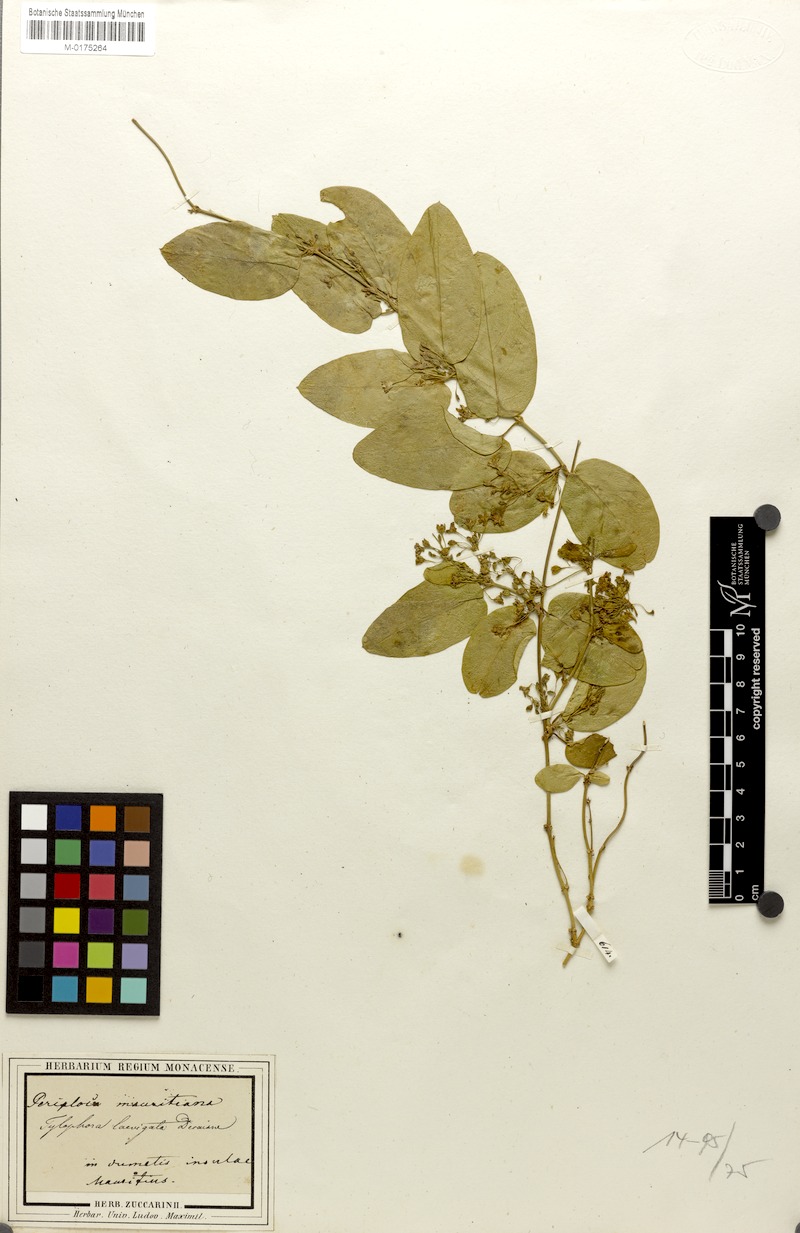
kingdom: Plantae
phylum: Tracheophyta
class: Magnoliopsida
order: Gentianales
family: Apocynaceae
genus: Vincetoxicum
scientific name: Vincetoxicum confusum
